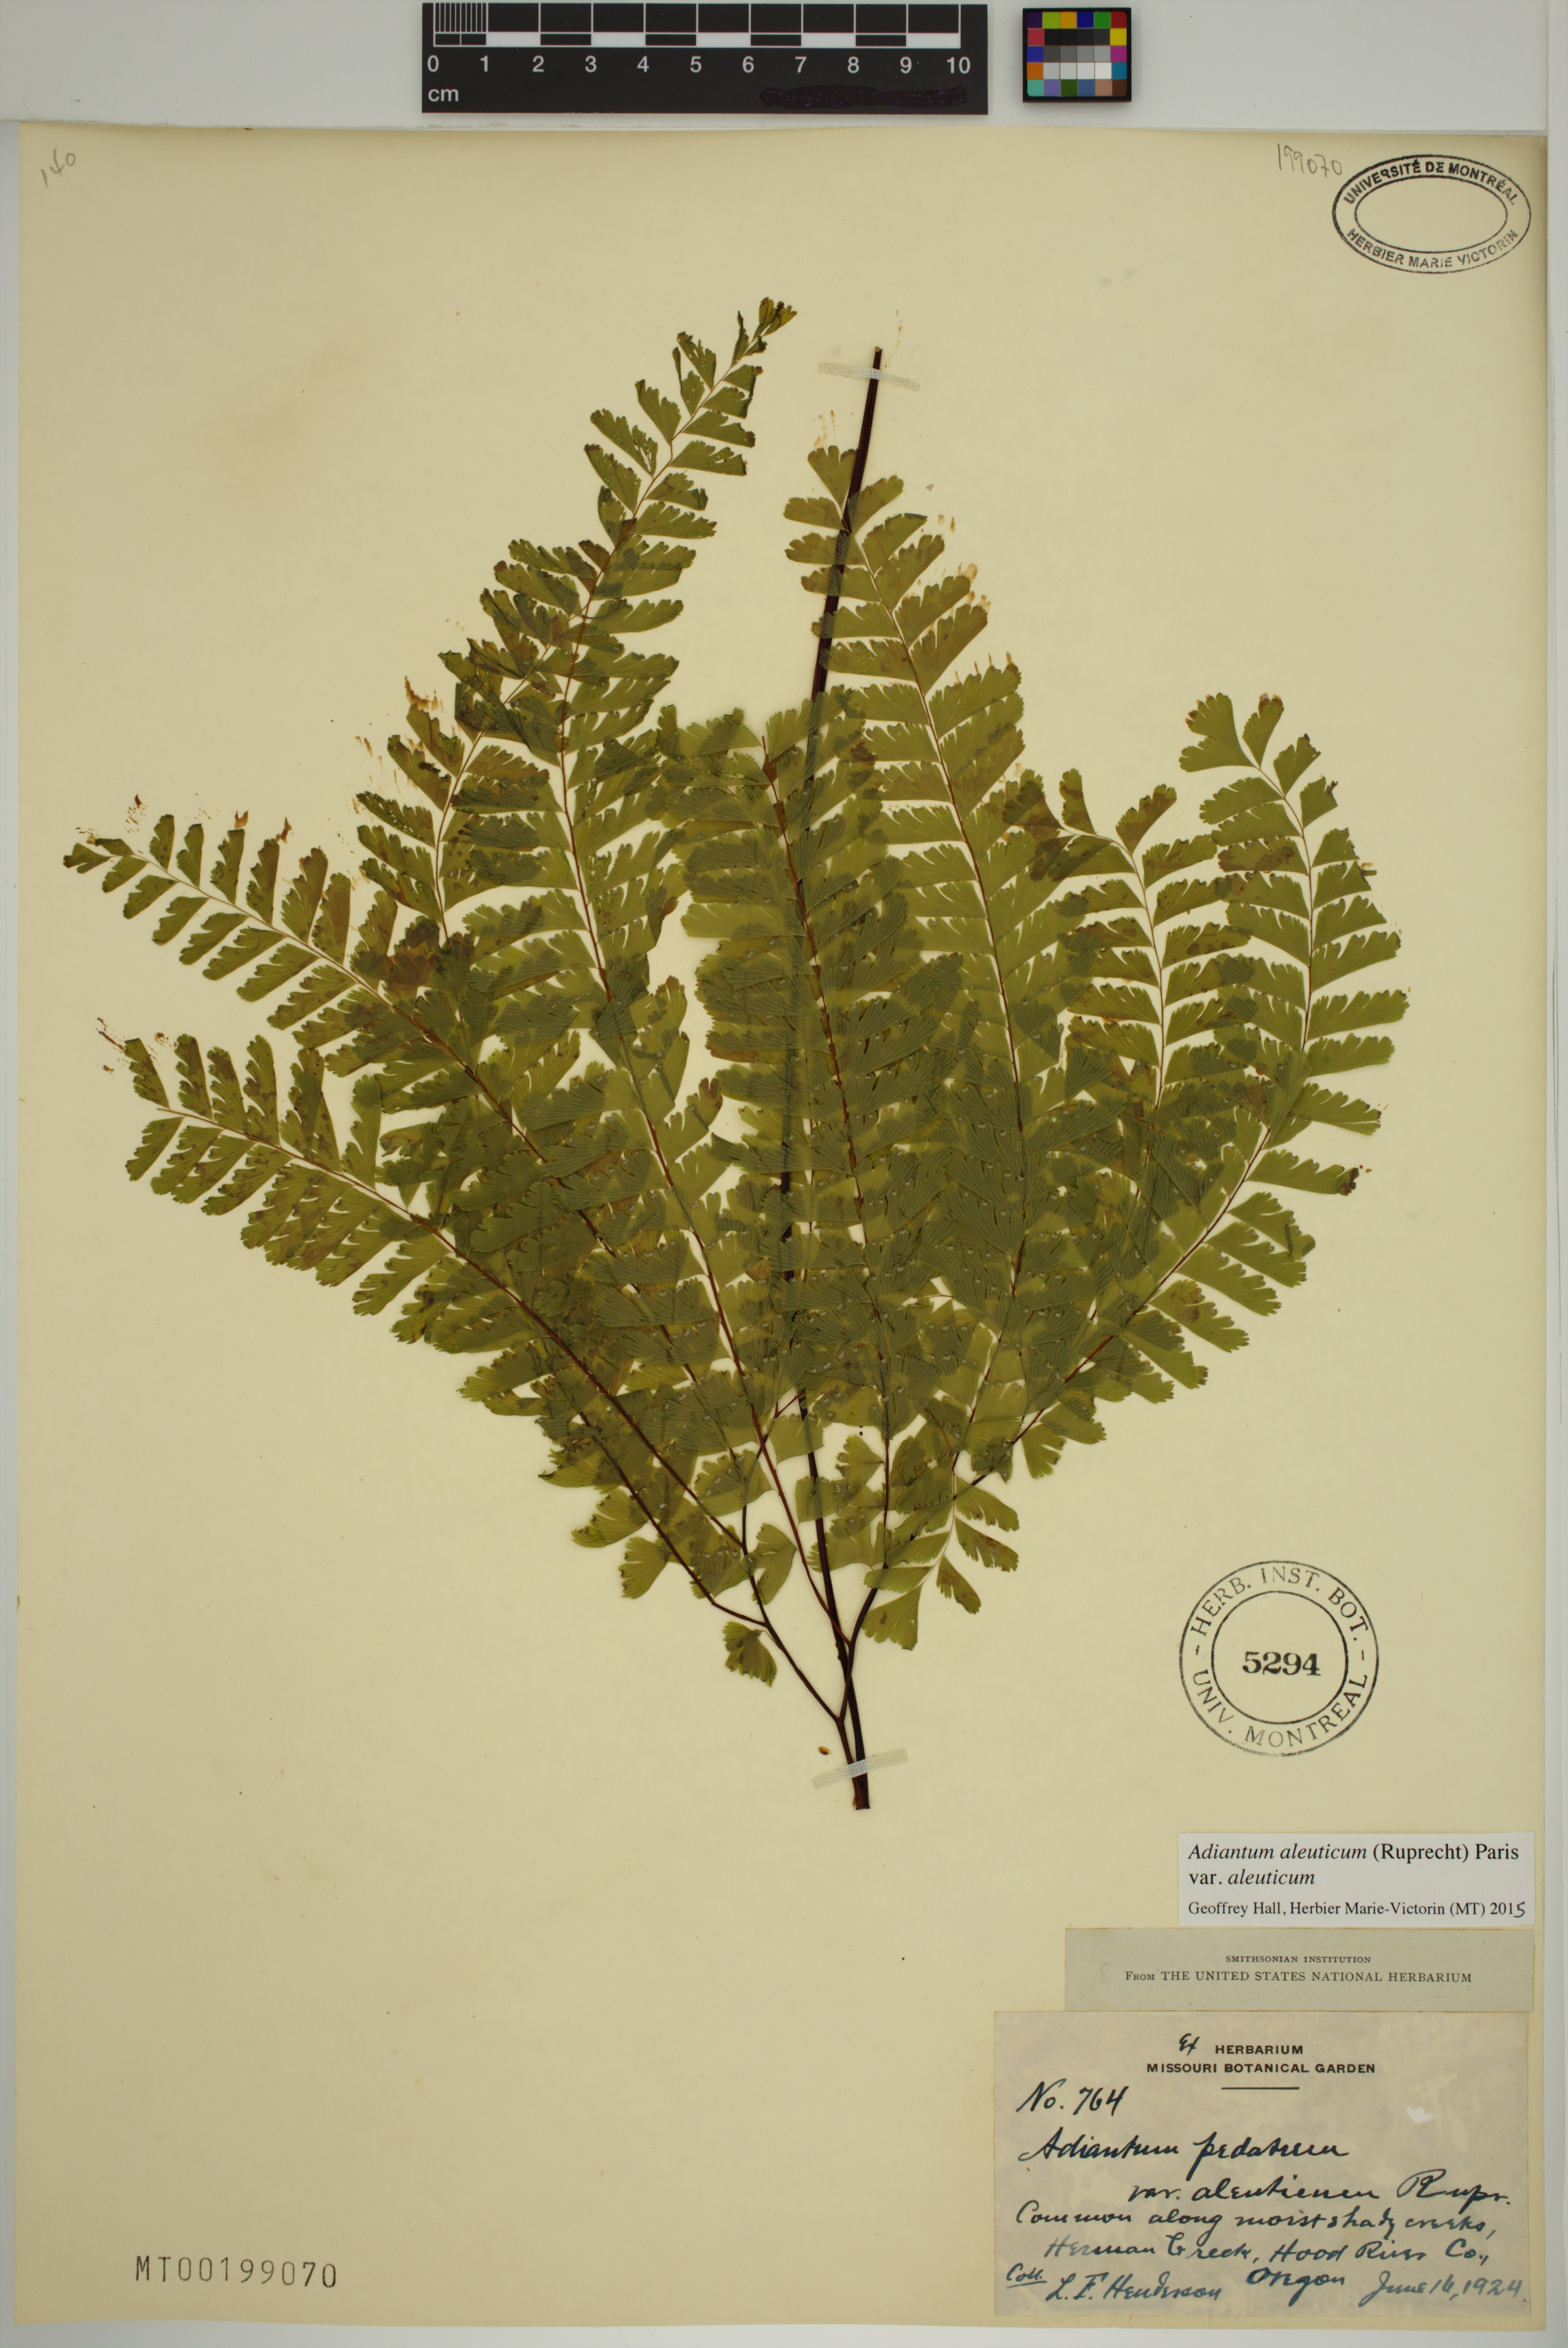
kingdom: Plantae
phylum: Tracheophyta
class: Polypodiopsida
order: Polypodiales
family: Pteridaceae
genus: Adiantum
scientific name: Adiantum aleuticum
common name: Aleutian maidenhair fern
